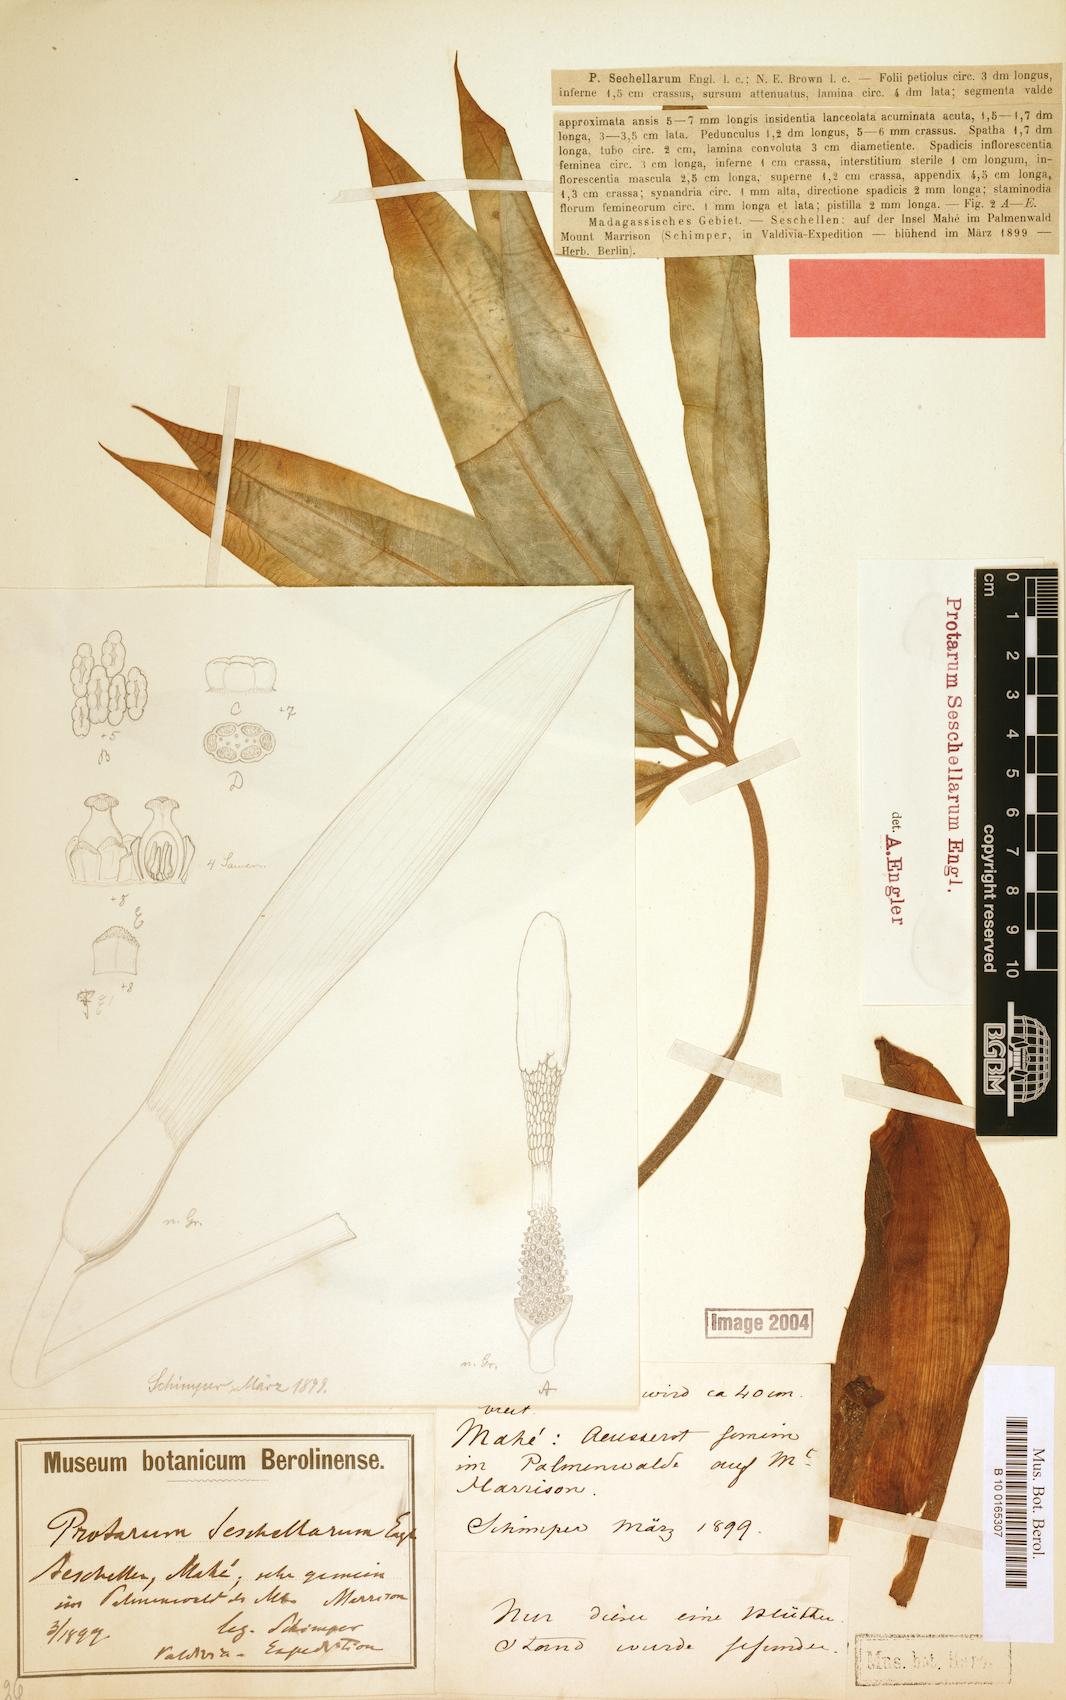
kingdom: Plantae
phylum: Tracheophyta
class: Liliopsida
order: Alismatales
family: Araceae
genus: Protarum
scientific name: Protarum sechellarum
